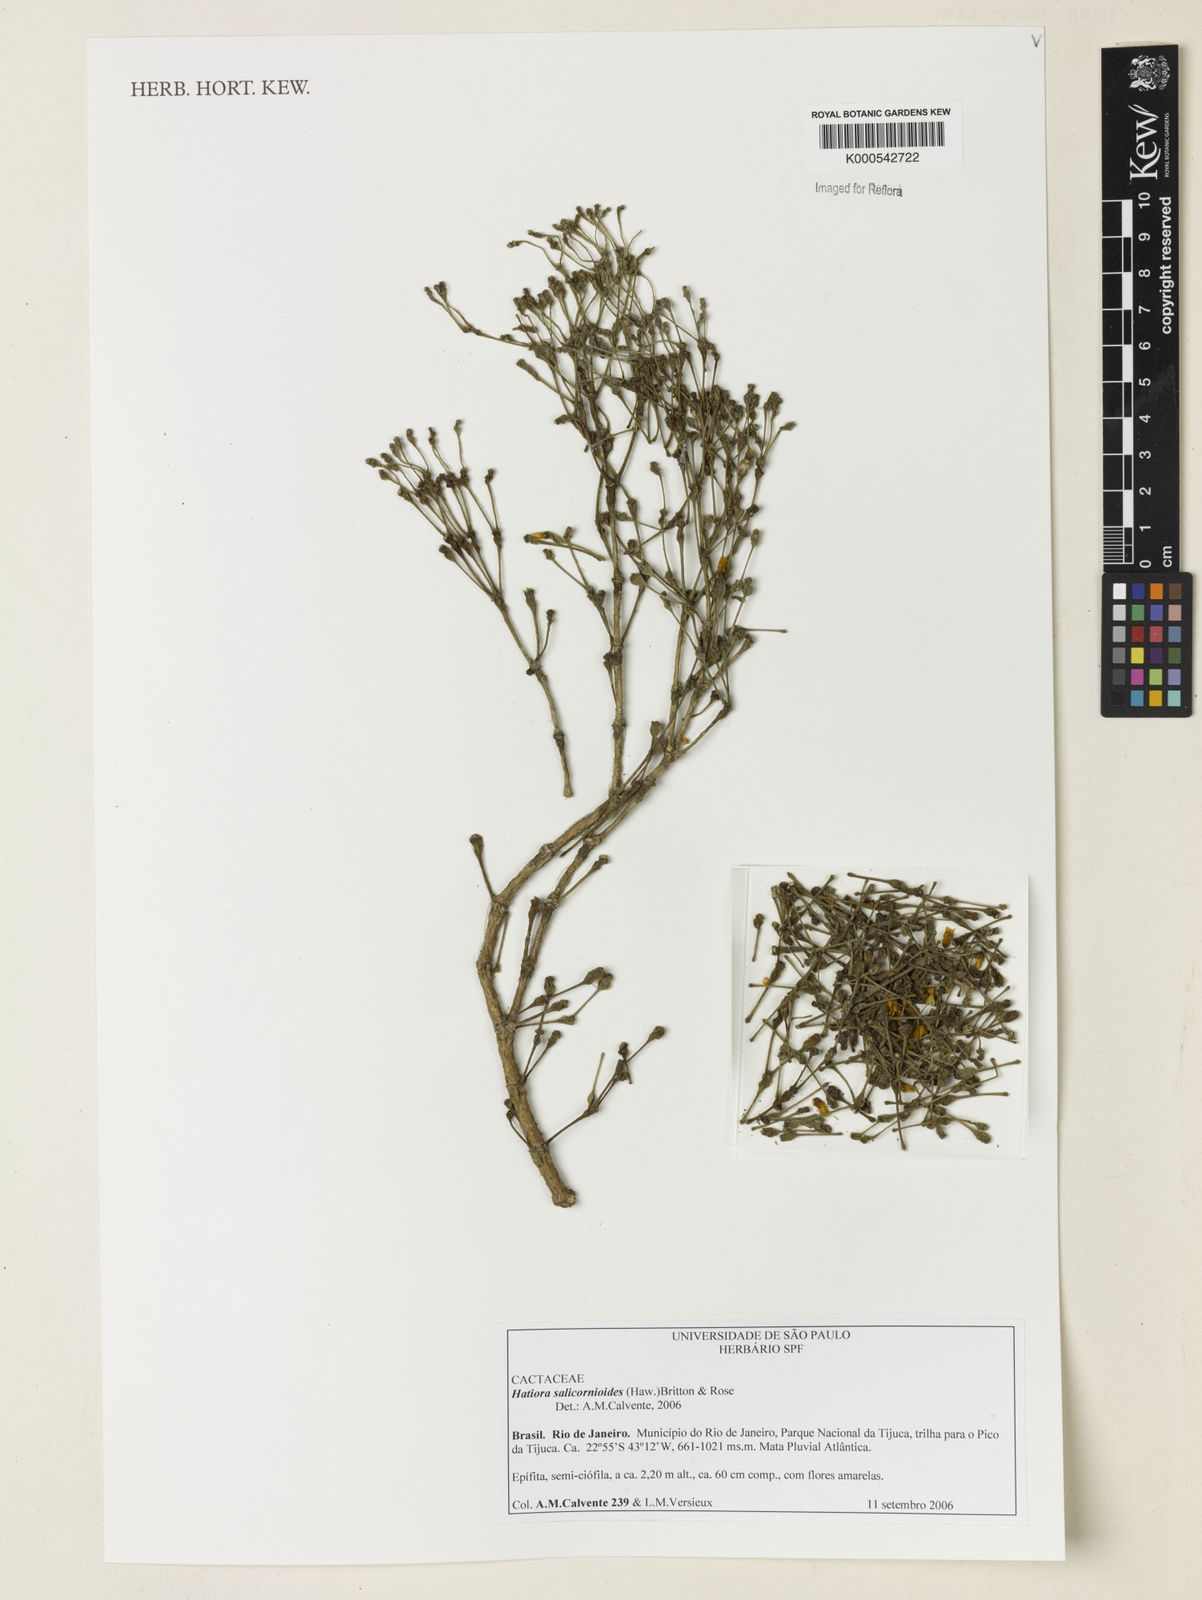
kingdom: Plantae
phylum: Tracheophyta
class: Magnoliopsida
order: Caryophyllales
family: Cactaceae
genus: Hatiora
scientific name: Hatiora salicornioides
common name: Dancing-bones
